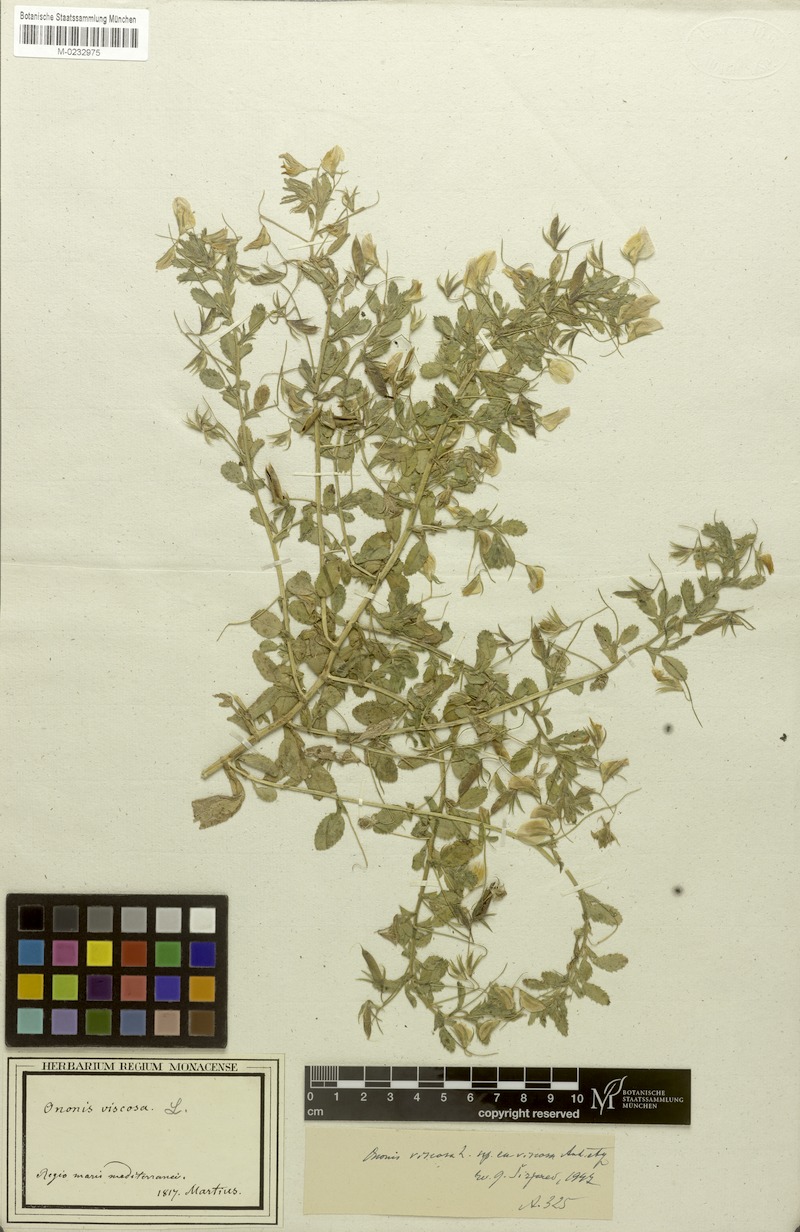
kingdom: Plantae
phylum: Tracheophyta
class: Magnoliopsida
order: Fabales
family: Fabaceae
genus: Ononis
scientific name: Ononis viscosa
